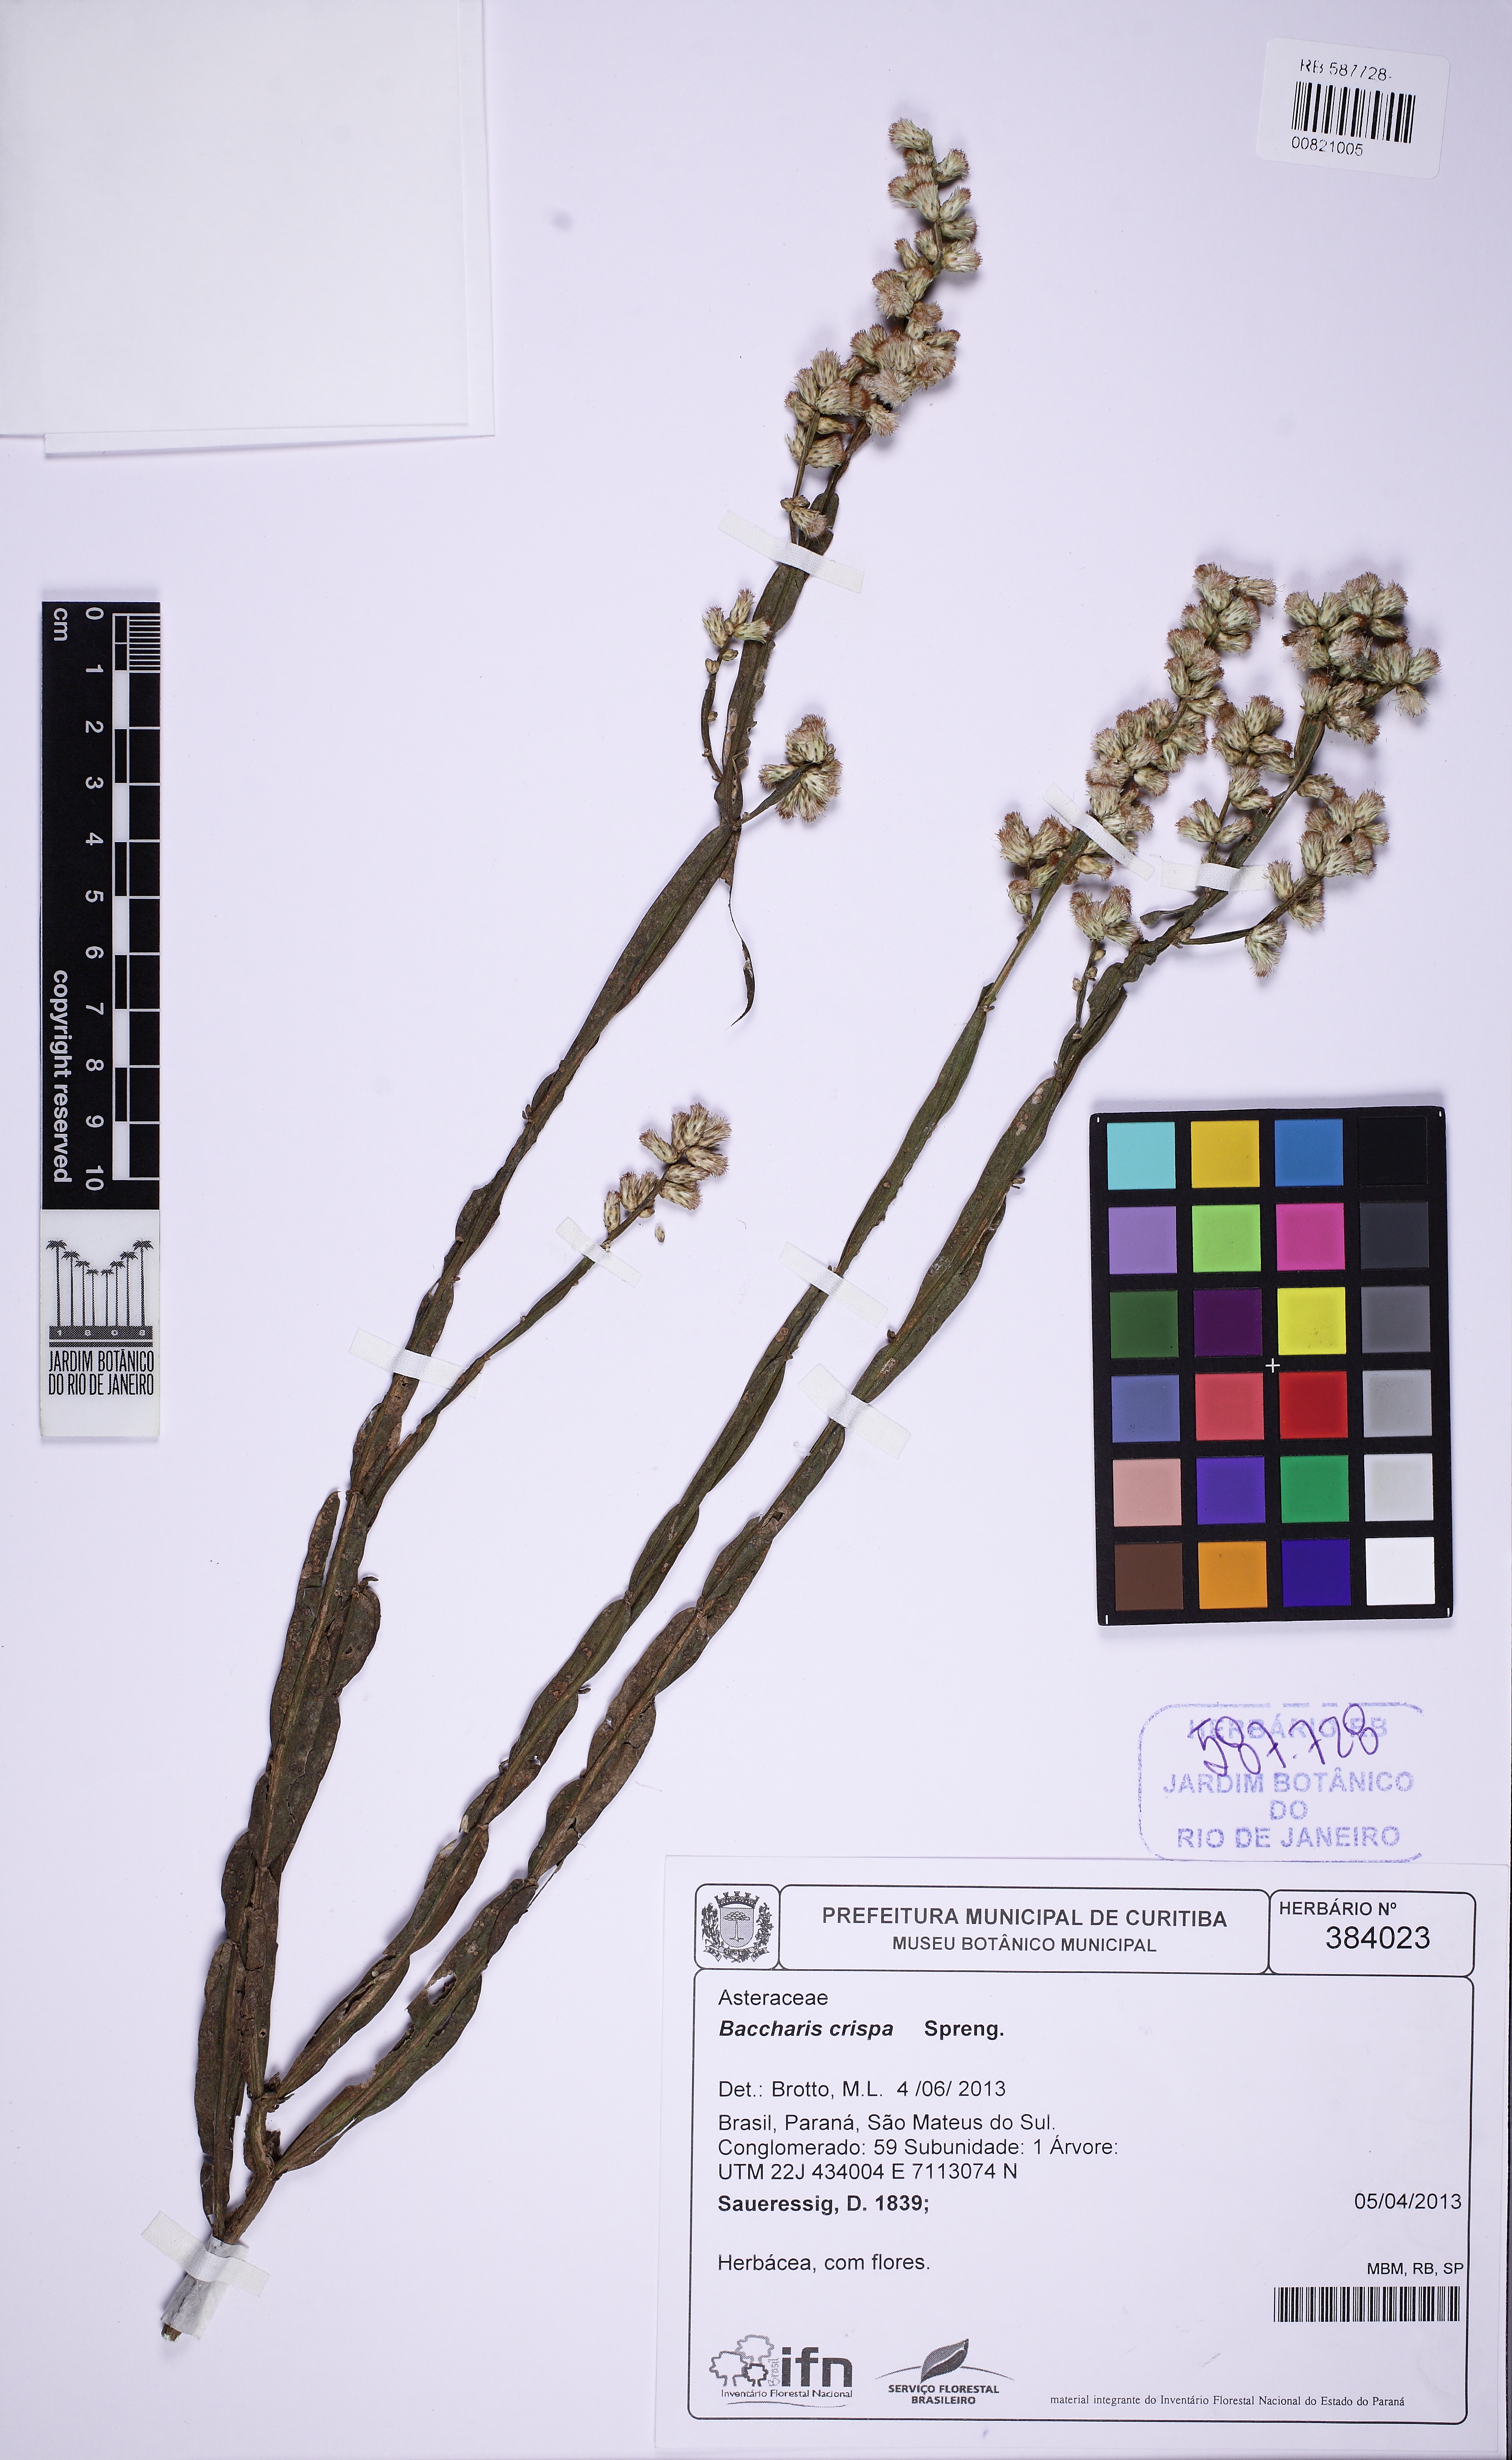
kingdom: Plantae
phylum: Tracheophyta
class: Magnoliopsida
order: Asterales
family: Asteraceae
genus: Baccharis
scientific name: Baccharis crispa
